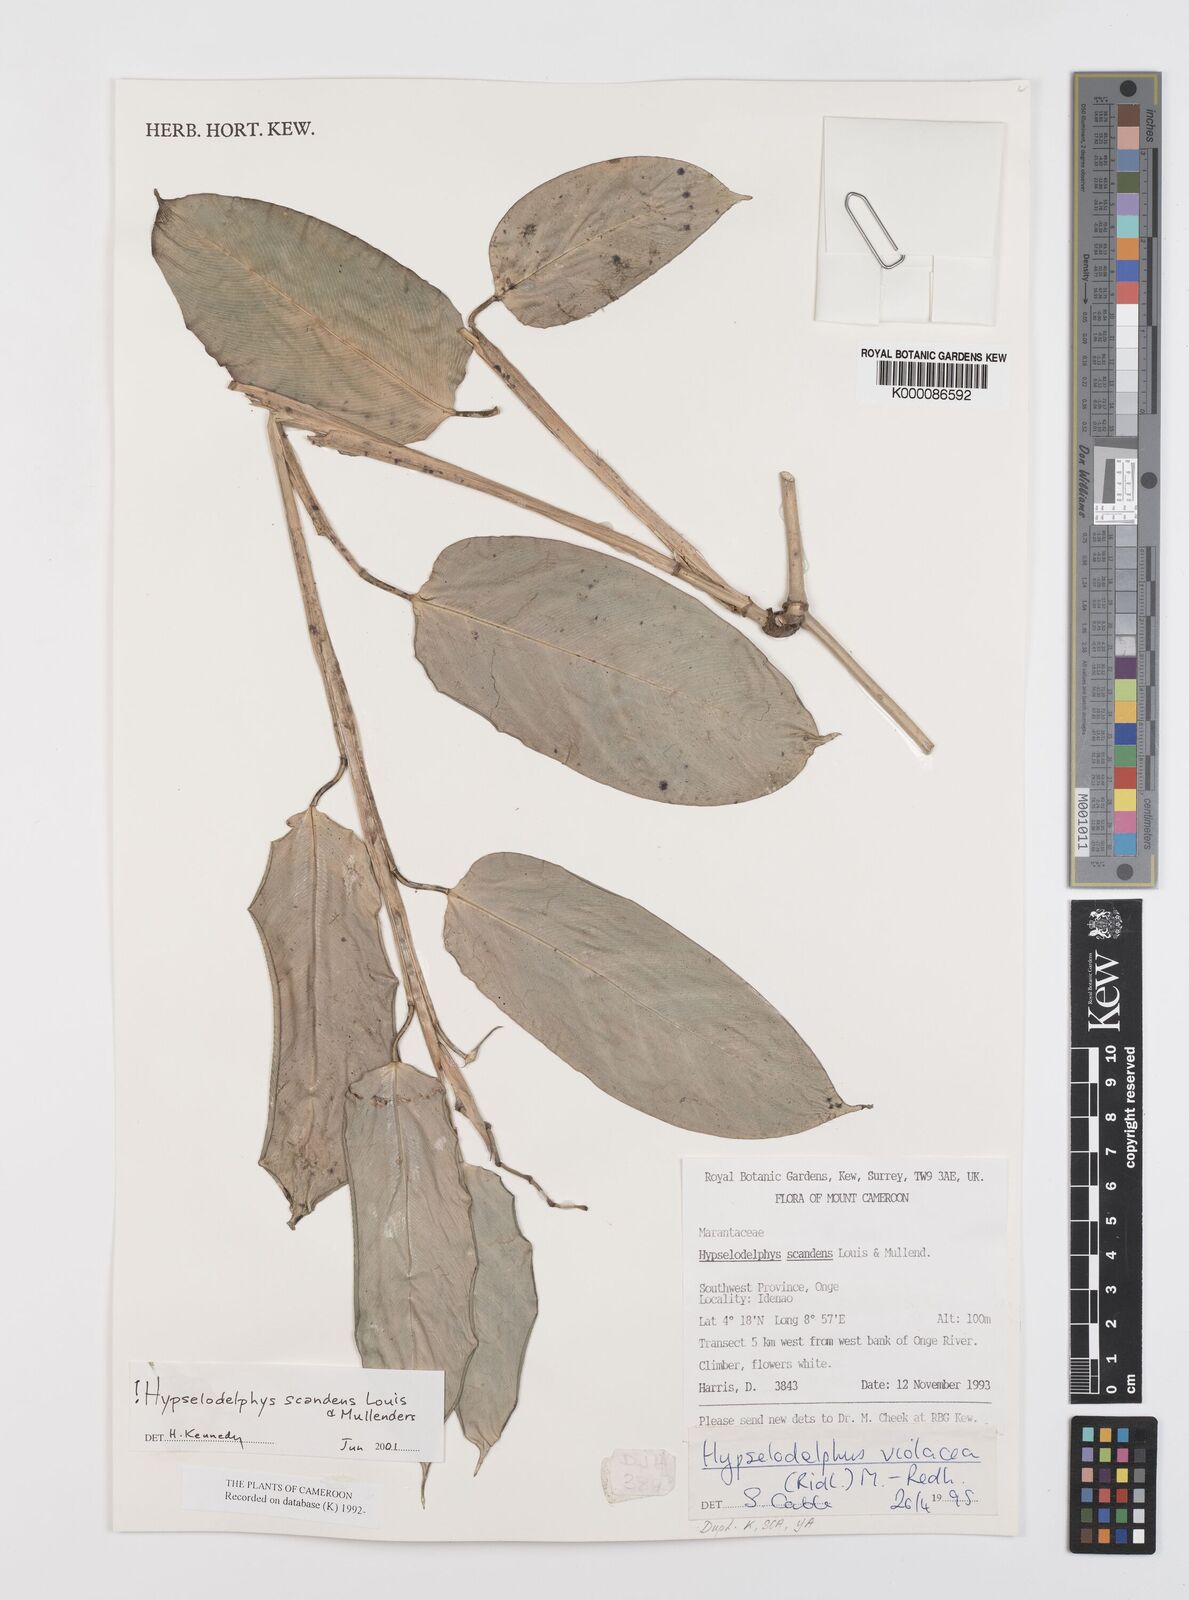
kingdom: Plantae
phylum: Tracheophyta
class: Liliopsida
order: Zingiberales
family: Marantaceae
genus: Hypselodelphys
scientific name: Hypselodelphys violacea
